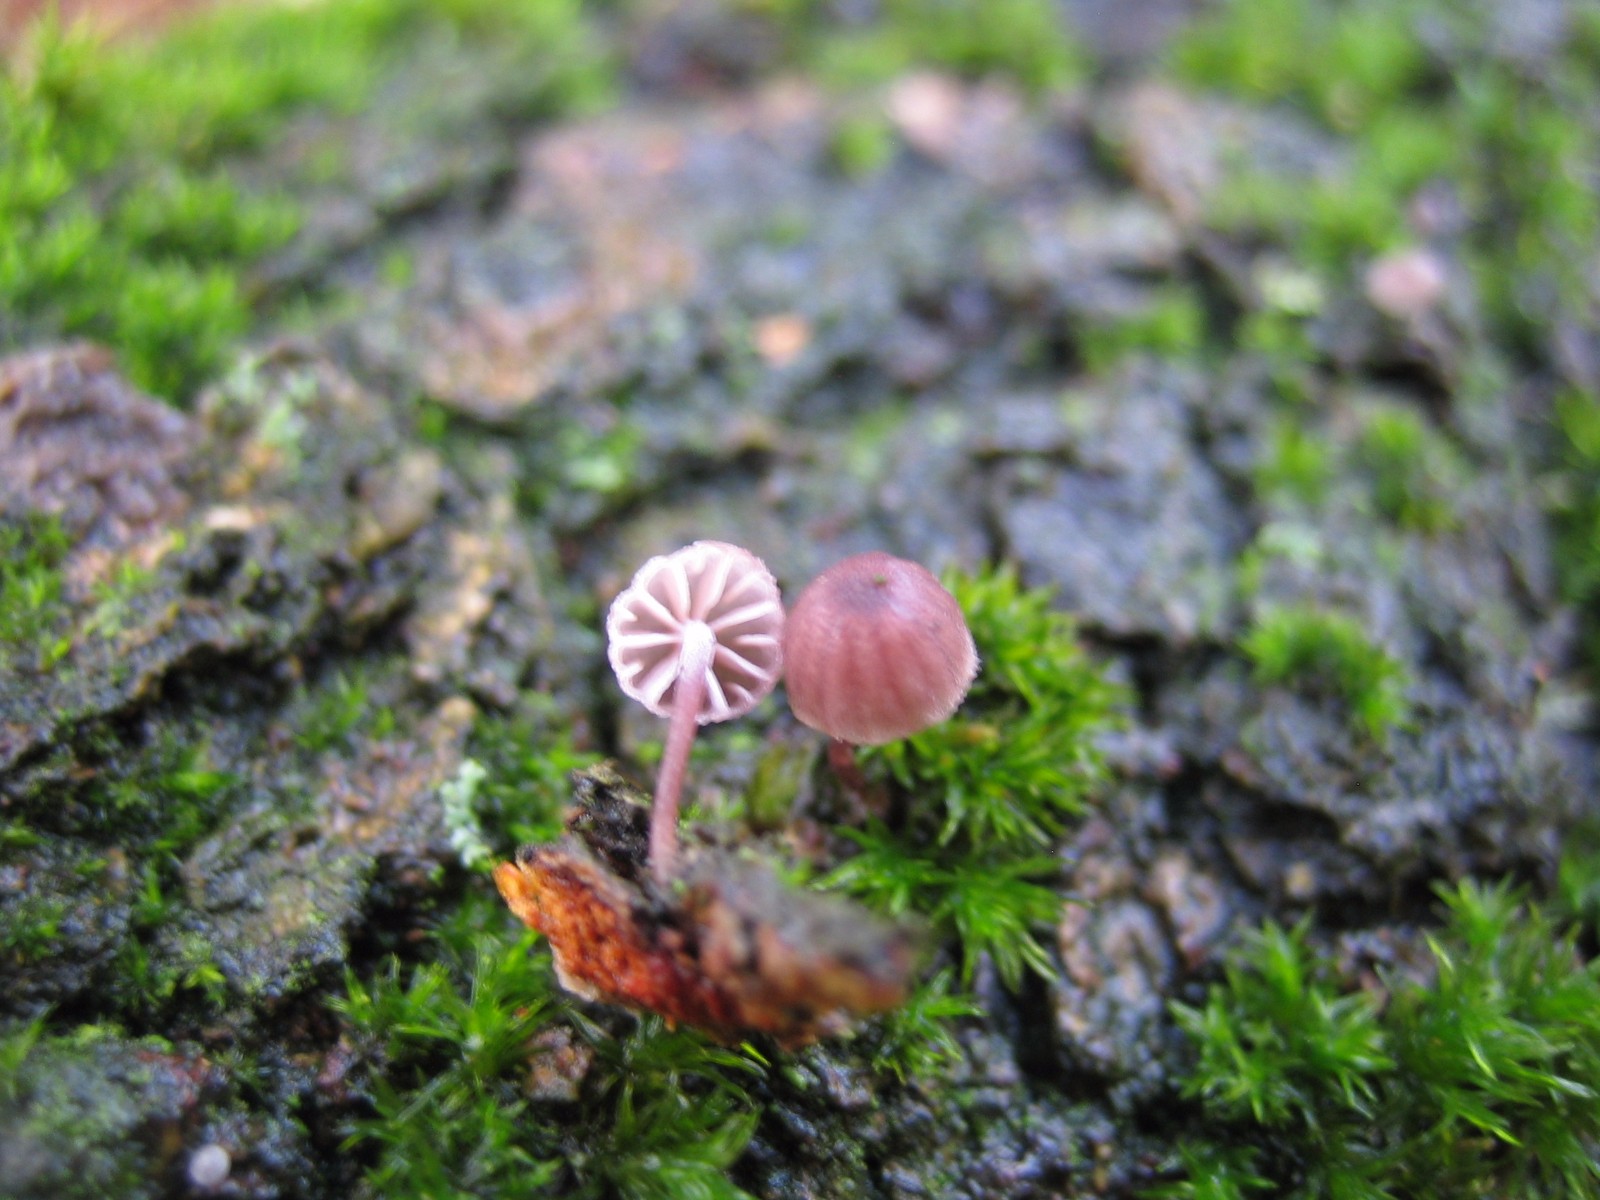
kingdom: Fungi
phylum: Basidiomycota
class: Agaricomycetes
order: Agaricales
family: Mycenaceae
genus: Mycena
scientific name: Mycena meliigena
